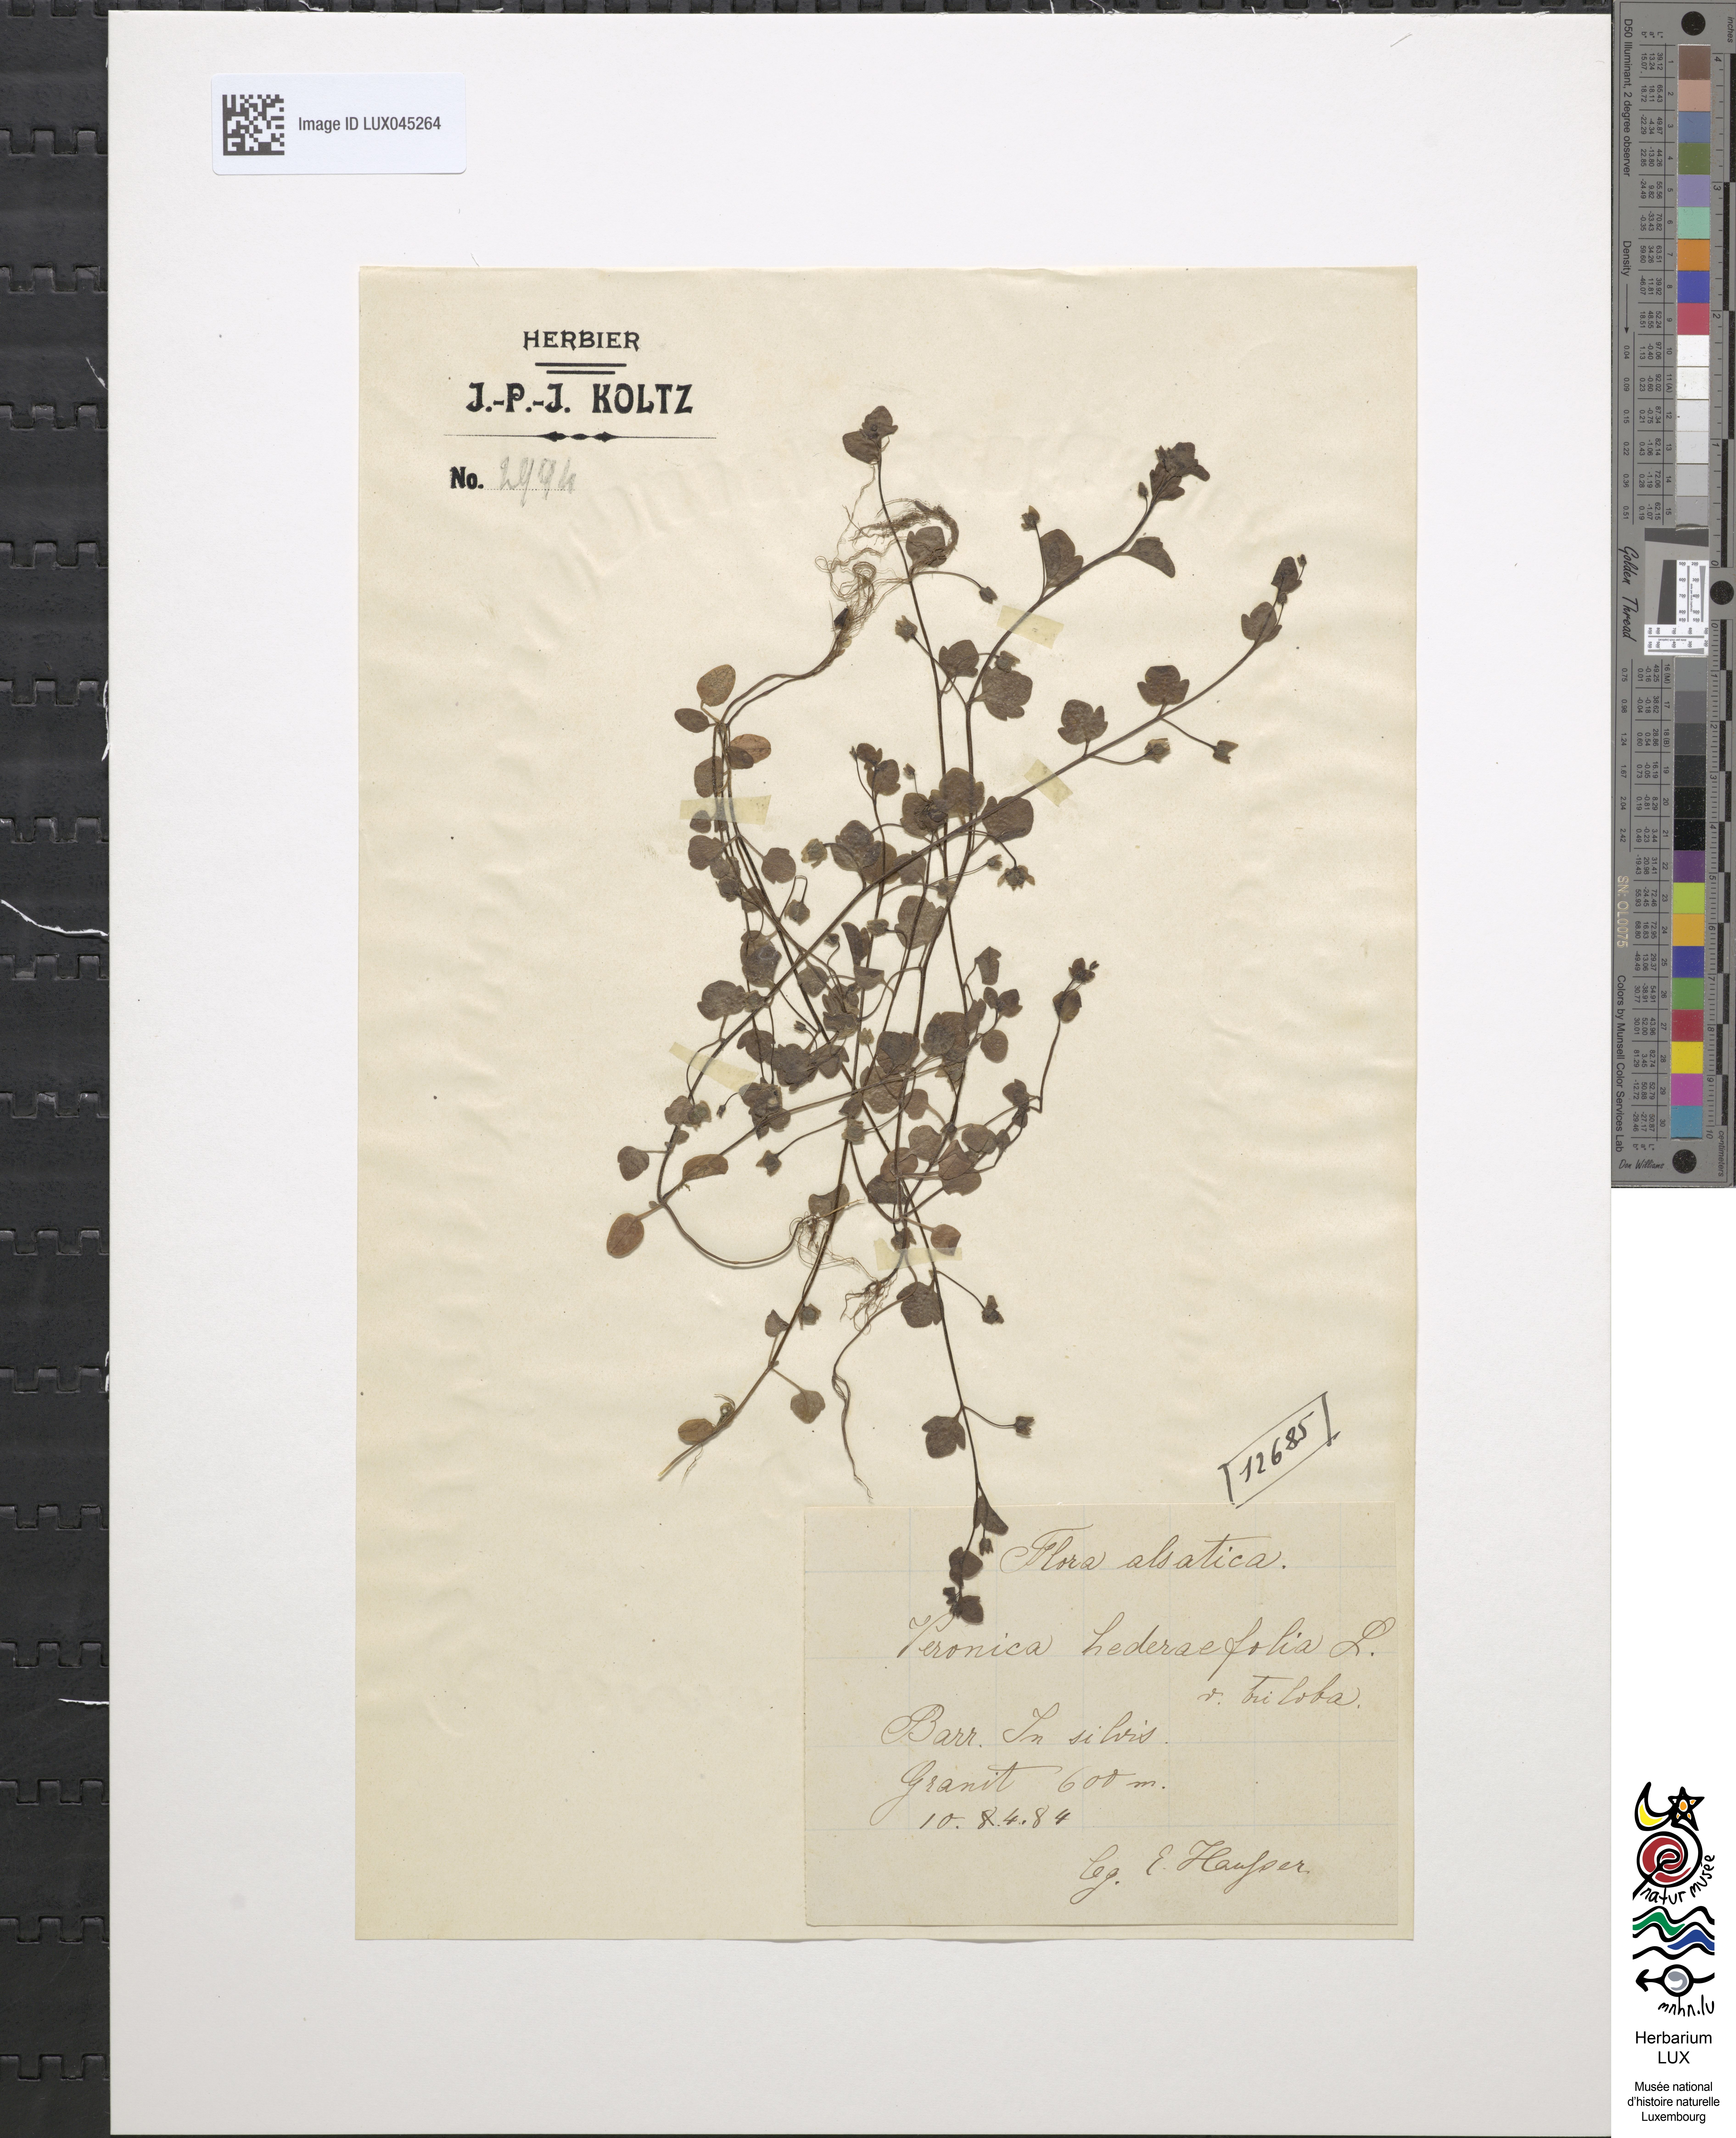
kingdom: Plantae
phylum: Tracheophyta
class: Magnoliopsida
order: Lamiales
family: Plantaginaceae
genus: Veronica
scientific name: Veronica triloba
